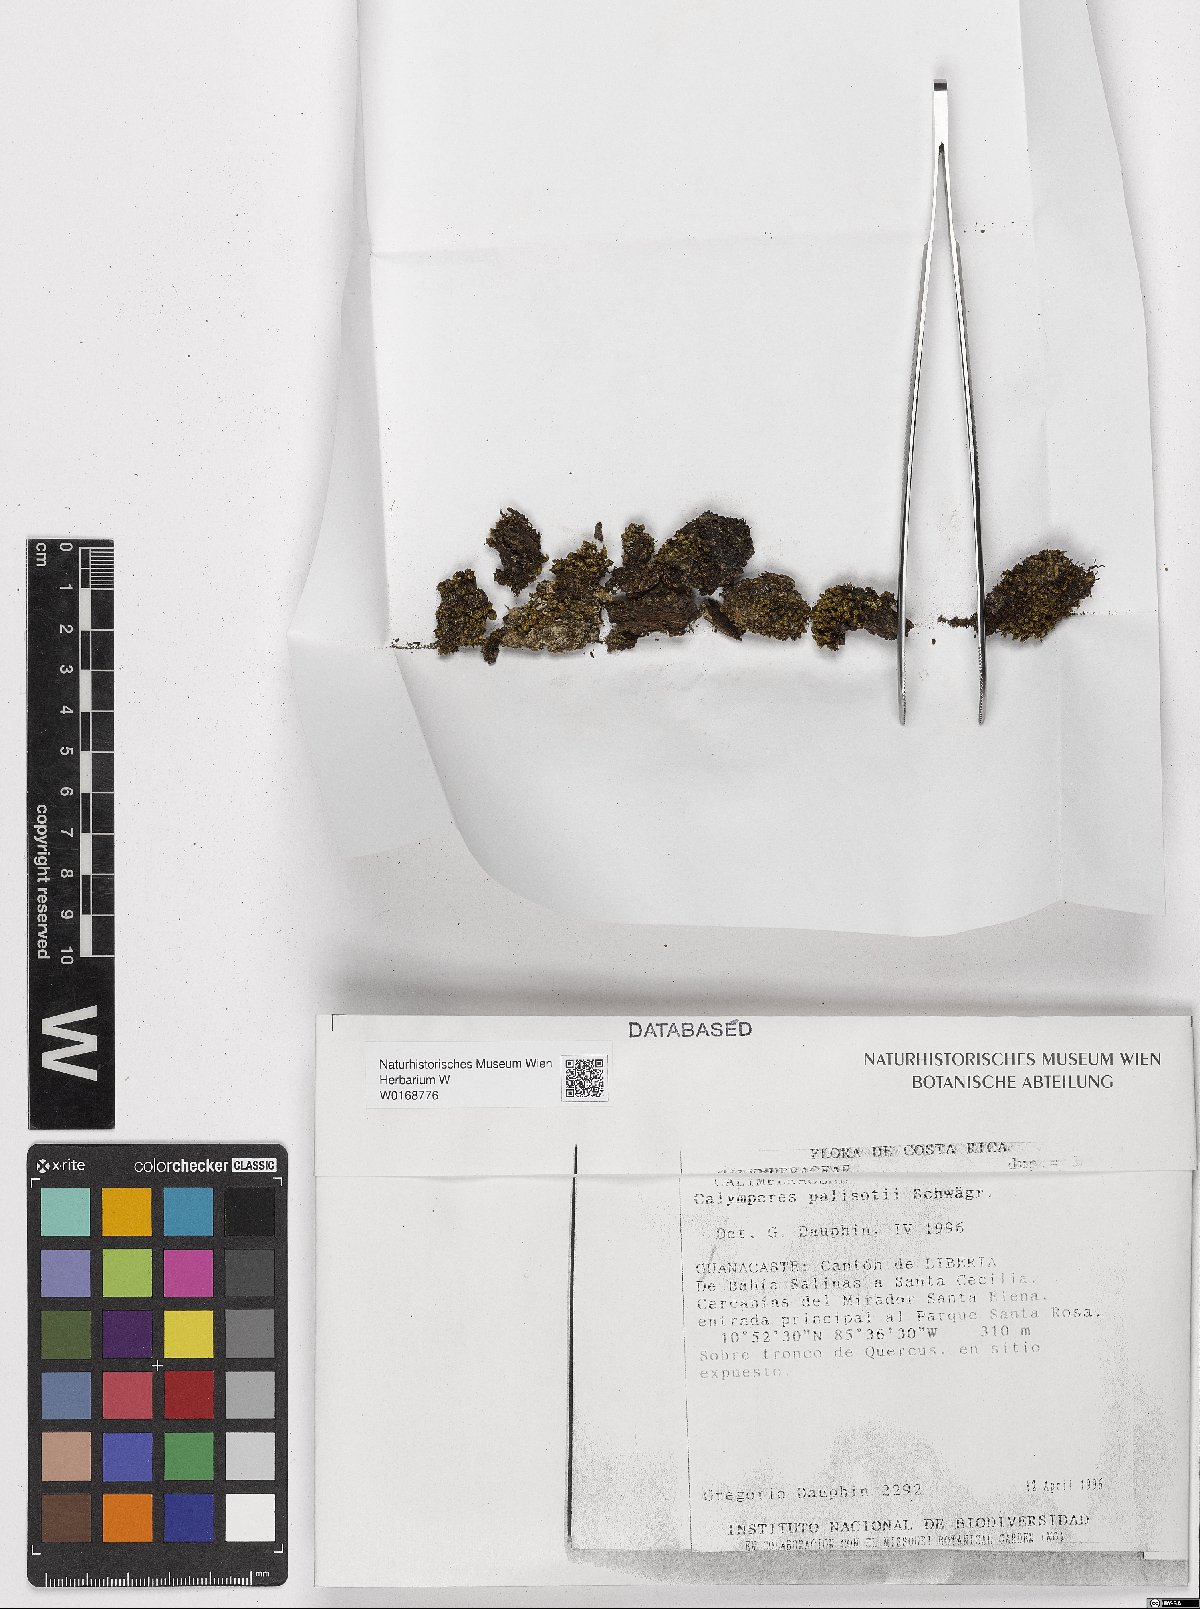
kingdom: Plantae
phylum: Bryophyta
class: Bryopsida
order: Dicranales
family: Calymperaceae
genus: Calymperes
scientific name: Calymperes palisotii
